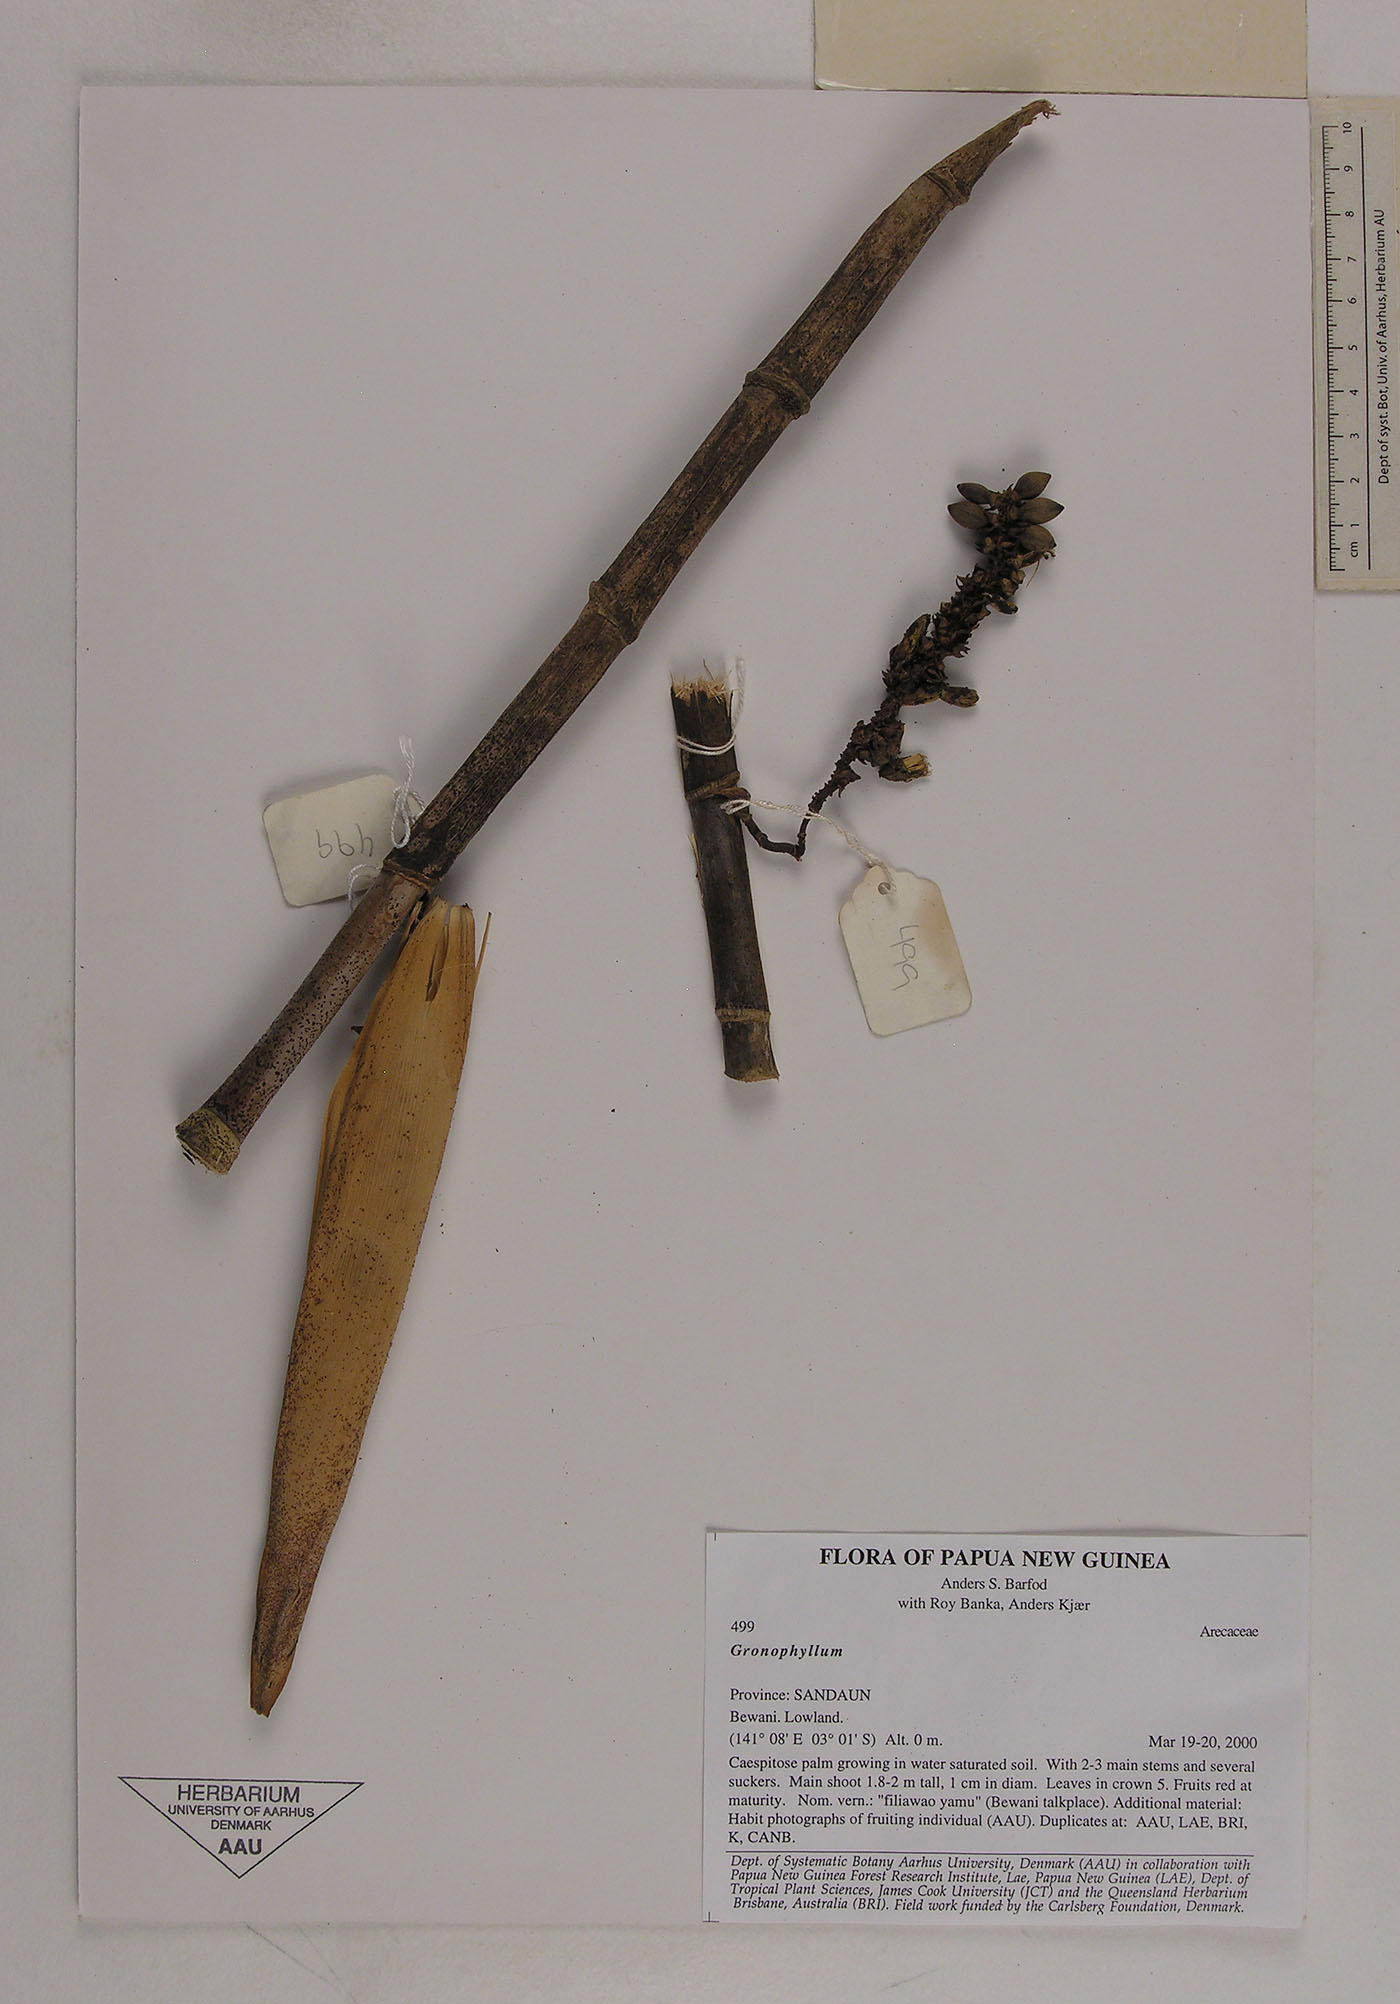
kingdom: Plantae
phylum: Tracheophyta
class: Liliopsida
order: Arecales
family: Arecaceae
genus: Hydriastele
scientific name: Hydriastele
